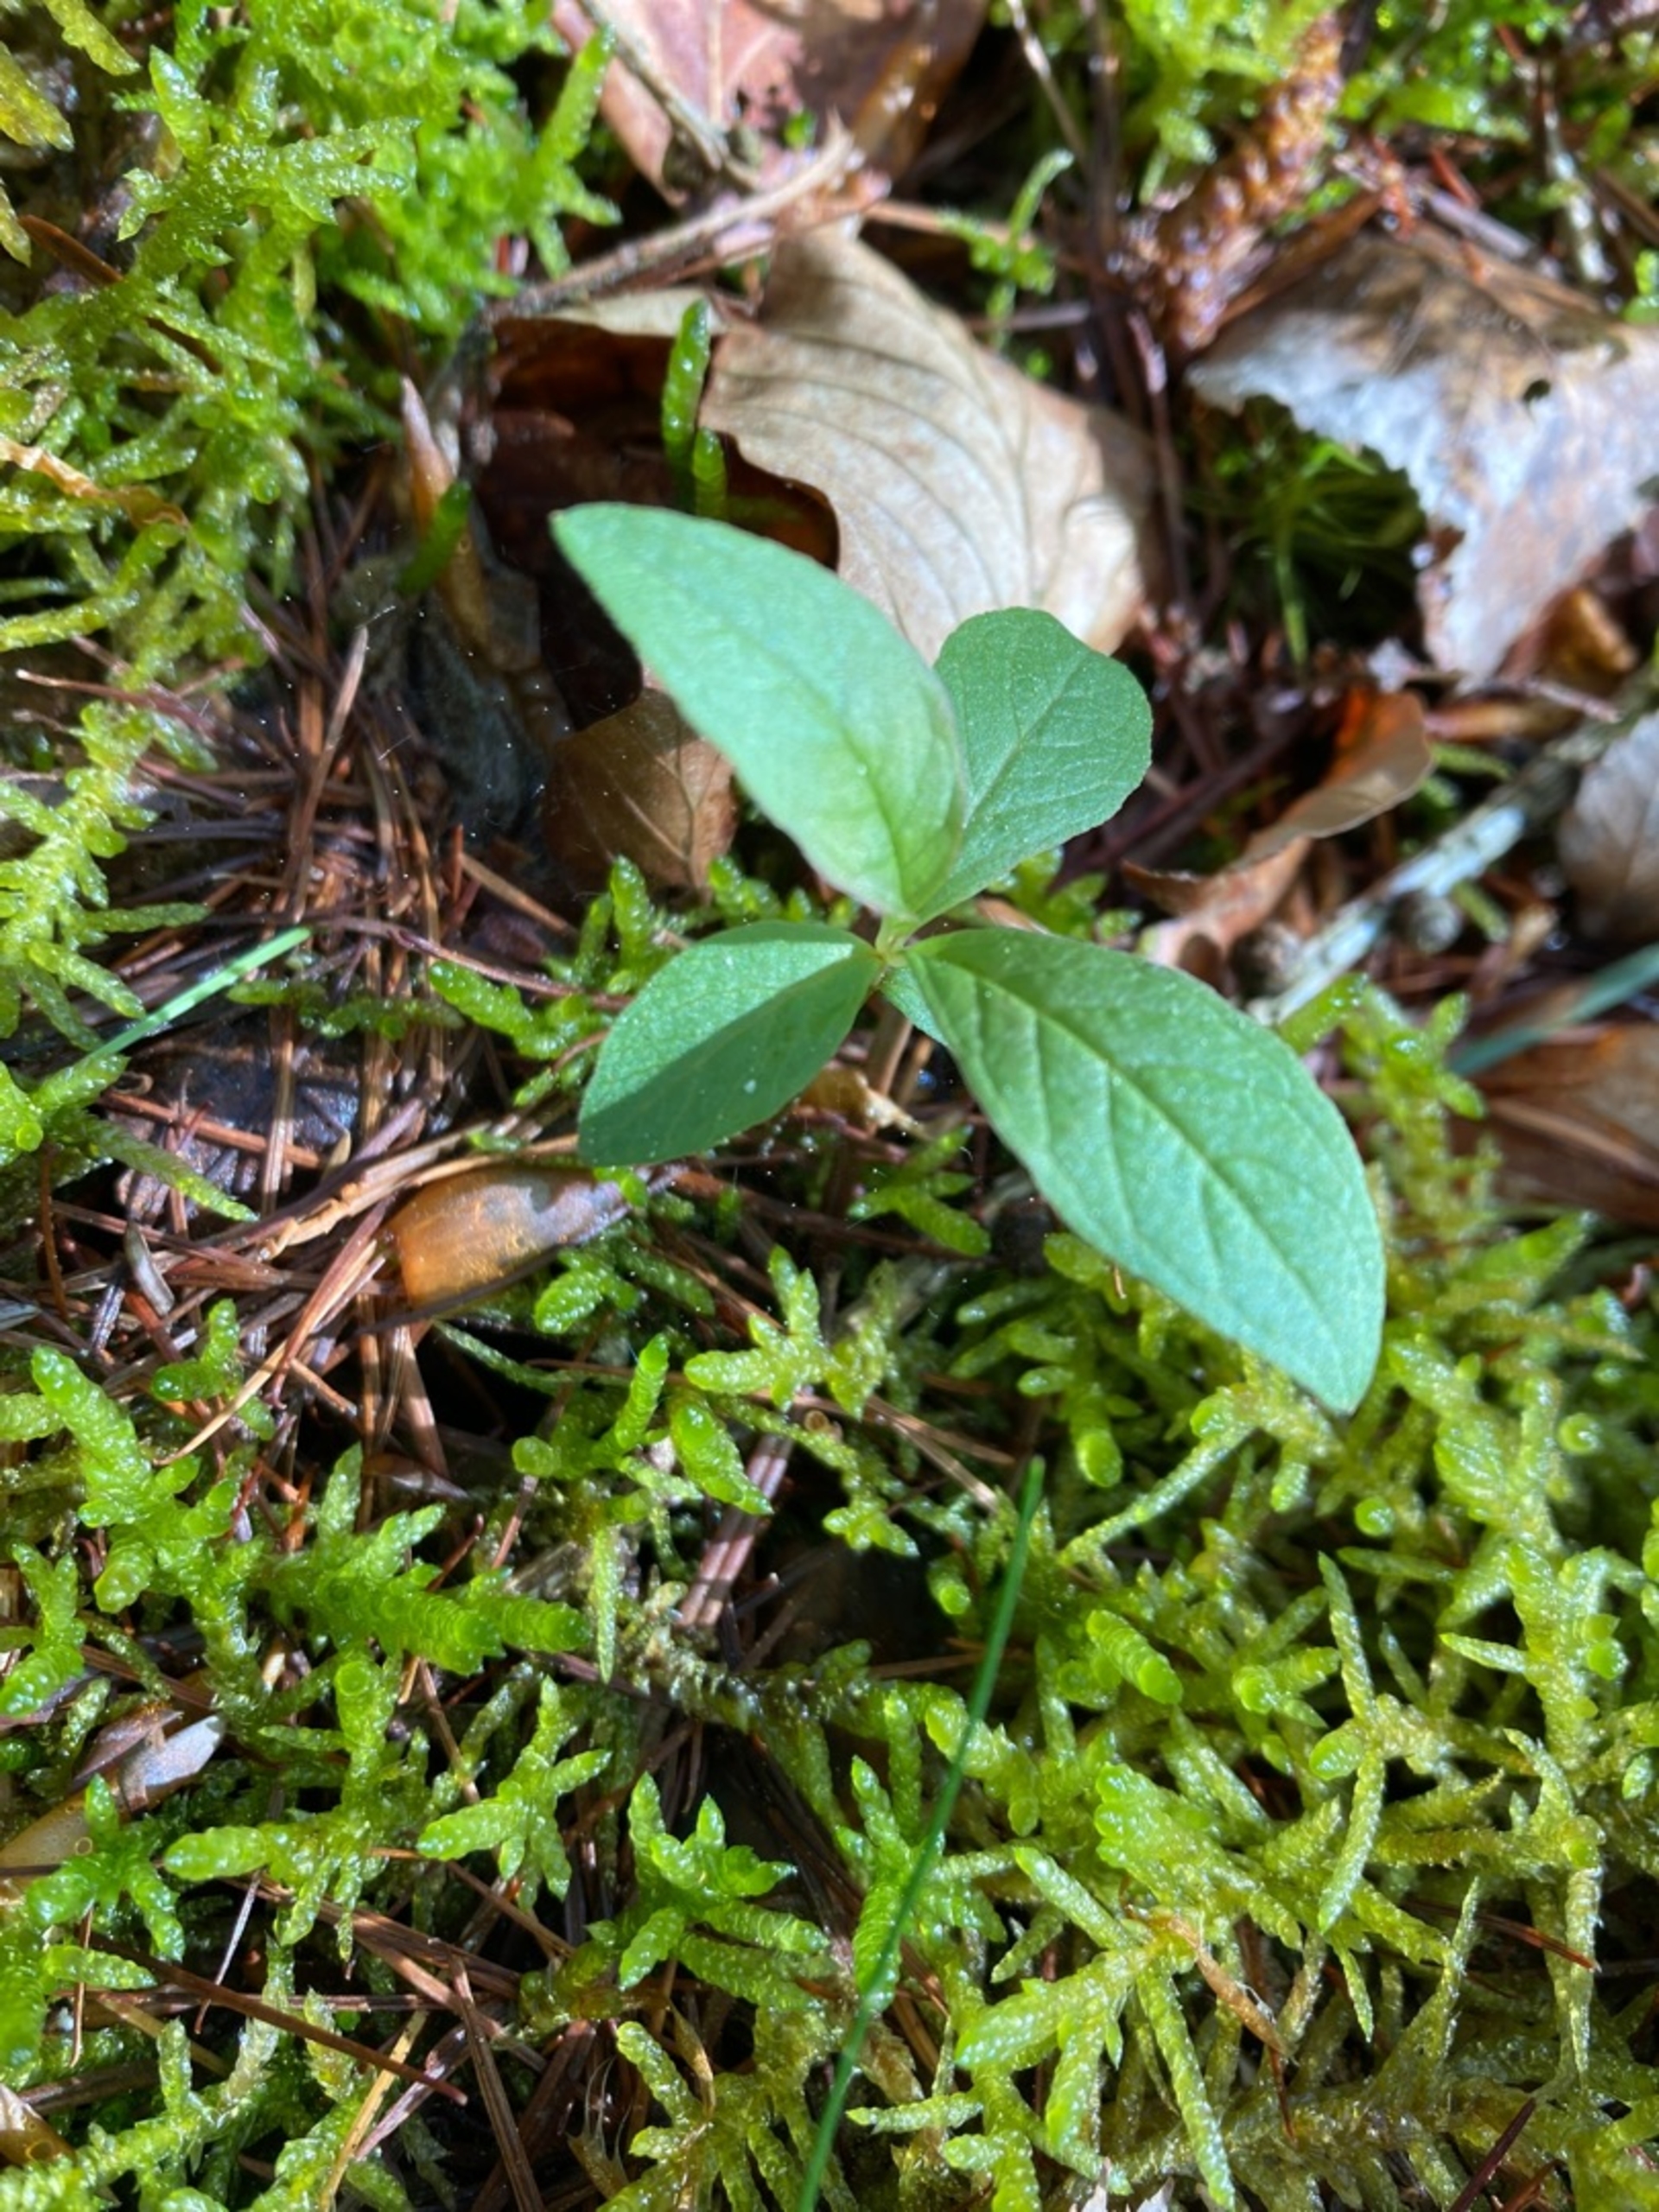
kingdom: Plantae
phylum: Tracheophyta
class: Magnoliopsida
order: Ericales
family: Primulaceae
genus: Lysimachia
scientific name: Lysimachia europaea
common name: Skovstjerne
